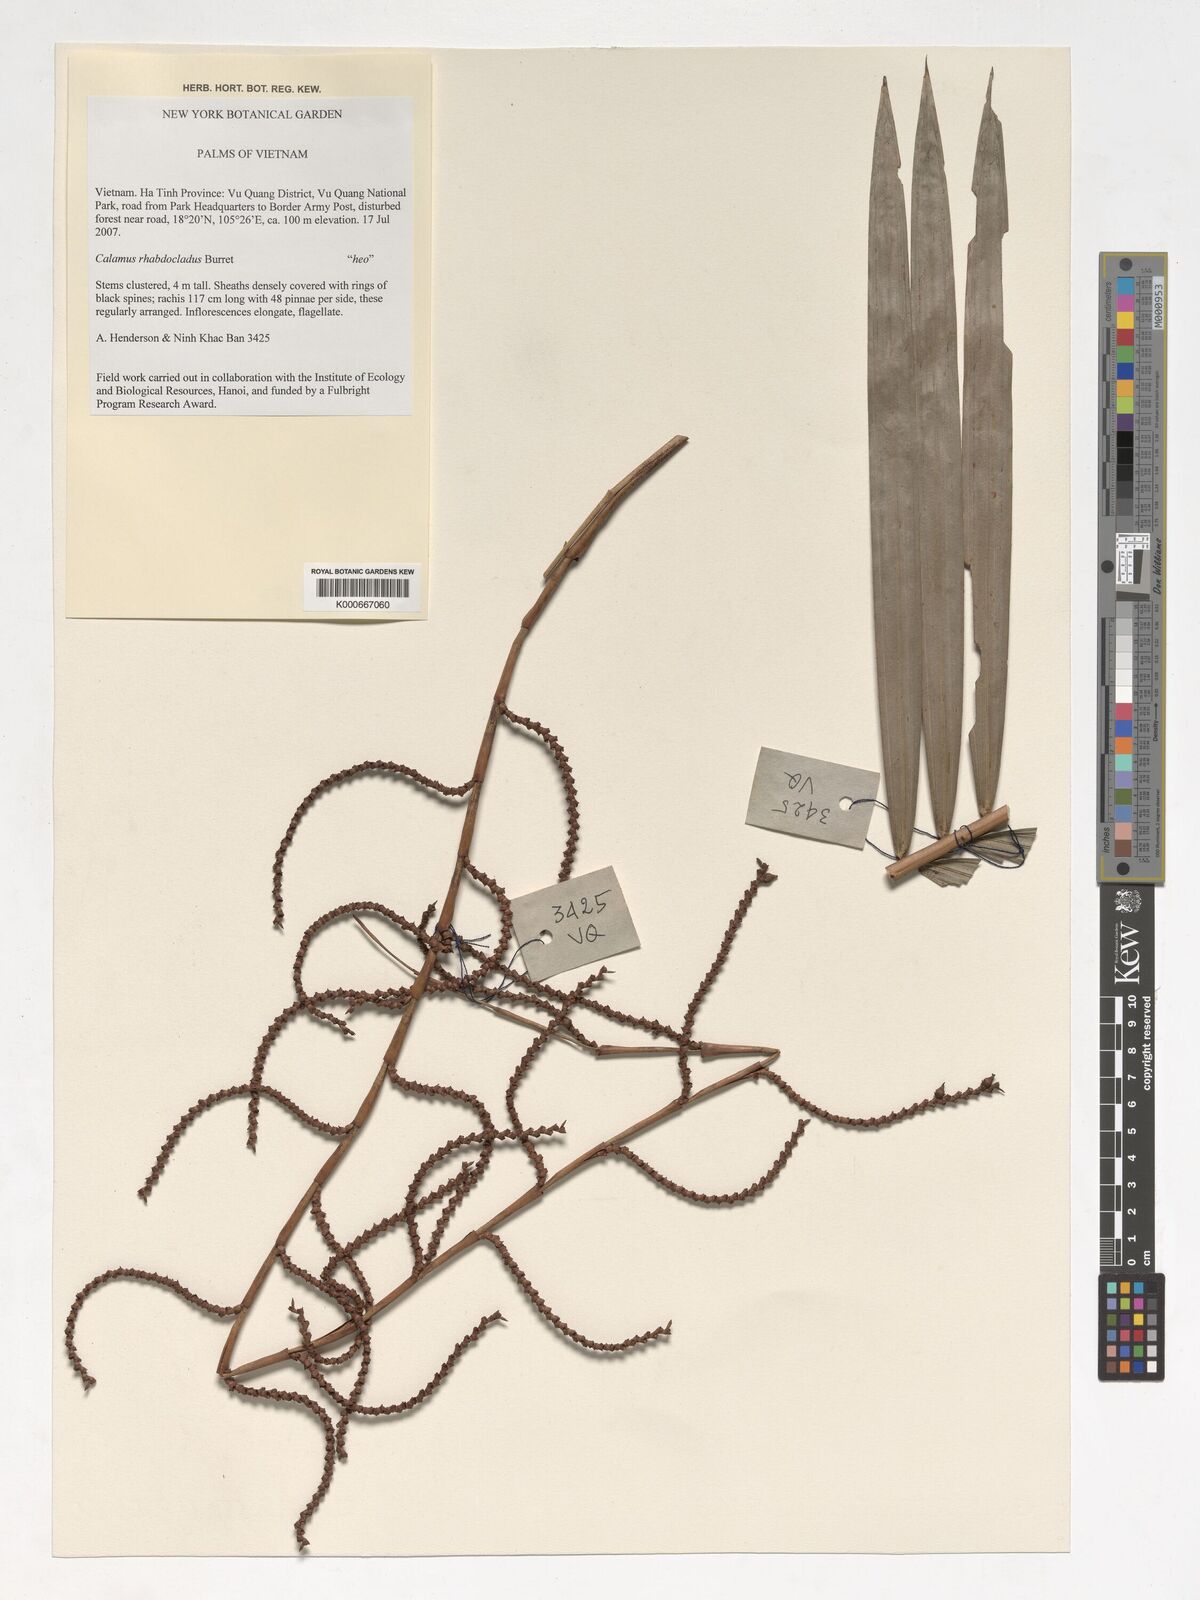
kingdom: Plantae
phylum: Tracheophyta
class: Liliopsida
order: Arecales
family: Arecaceae
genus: Calamus
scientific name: Calamus rhabdocladus
